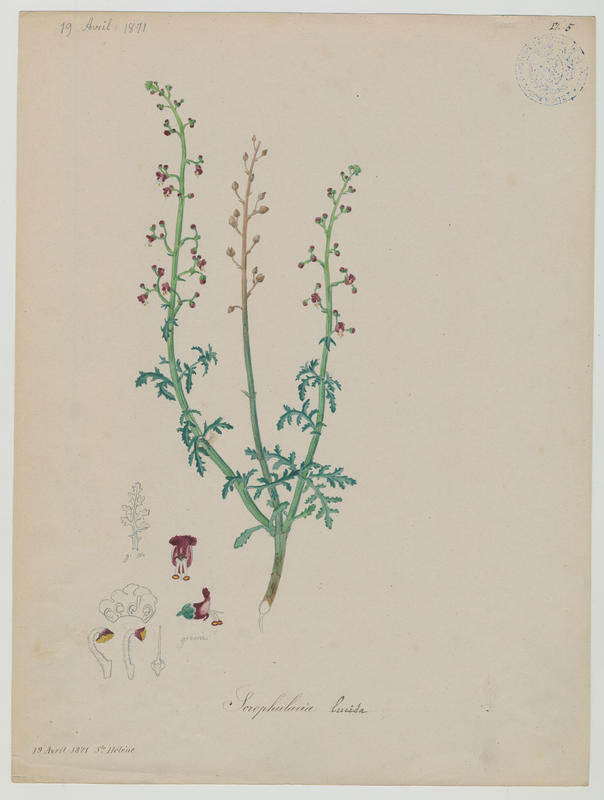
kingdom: Plantae
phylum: Tracheophyta
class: Magnoliopsida
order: Lamiales
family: Scrophulariaceae
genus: Scrophularia
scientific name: Scrophularia lucida
